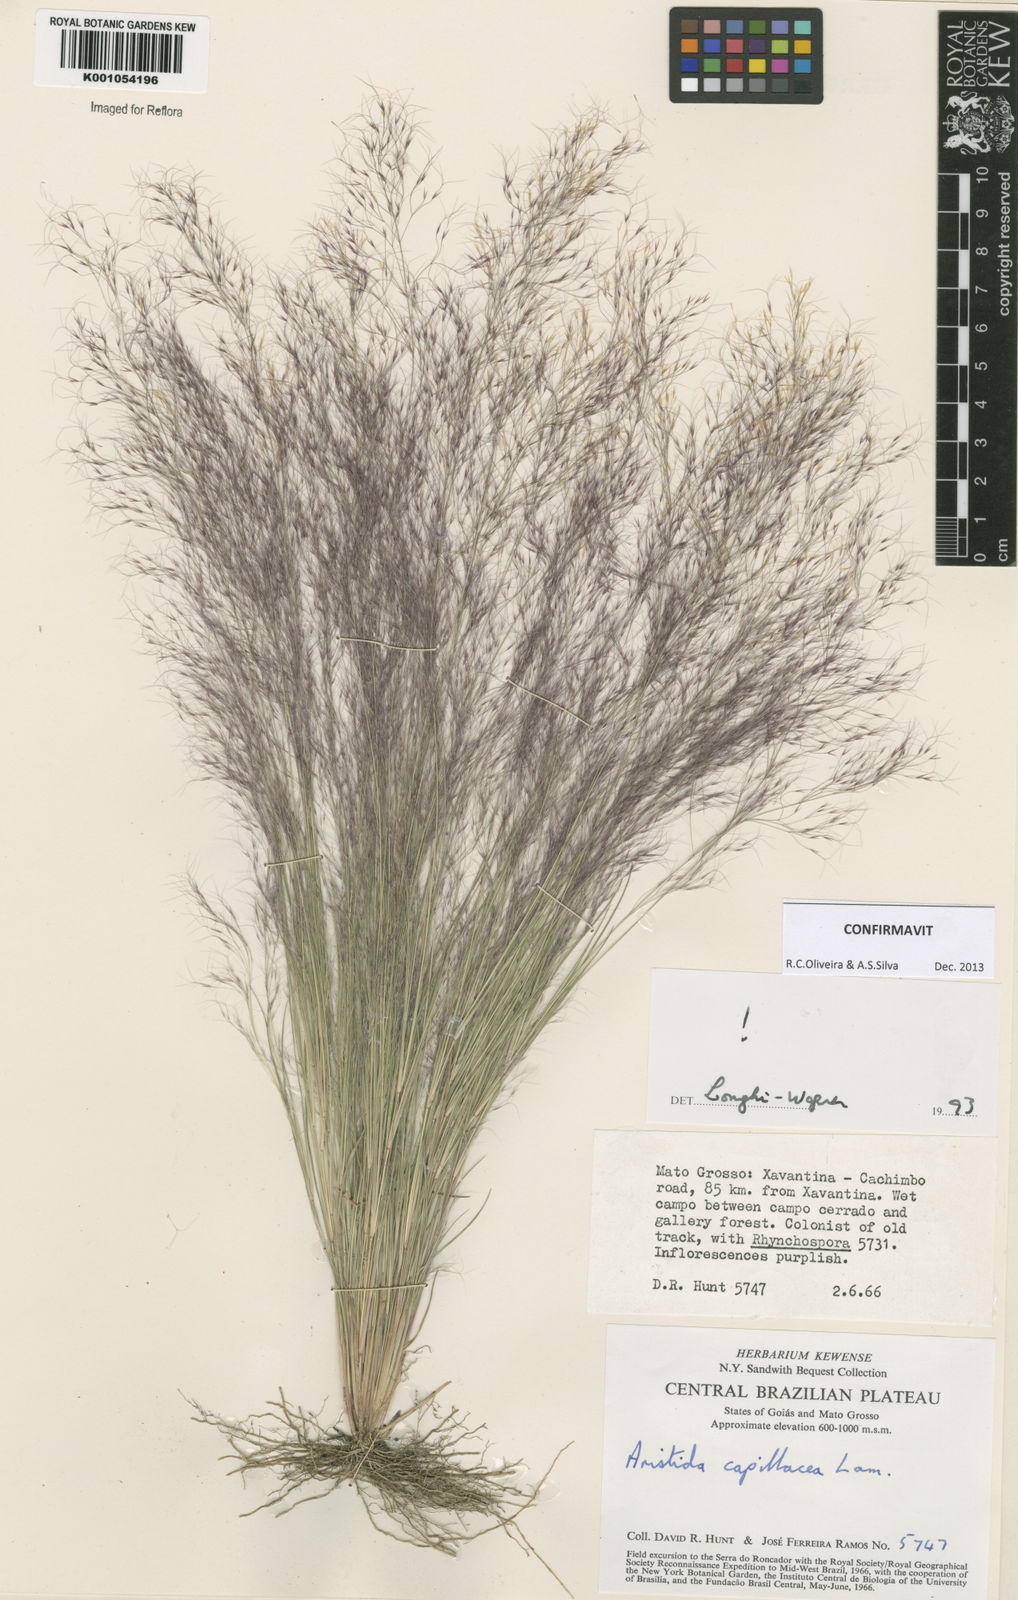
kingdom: Plantae
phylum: Tracheophyta
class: Liliopsida
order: Poales
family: Poaceae
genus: Aristida
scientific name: Aristida capillacea
